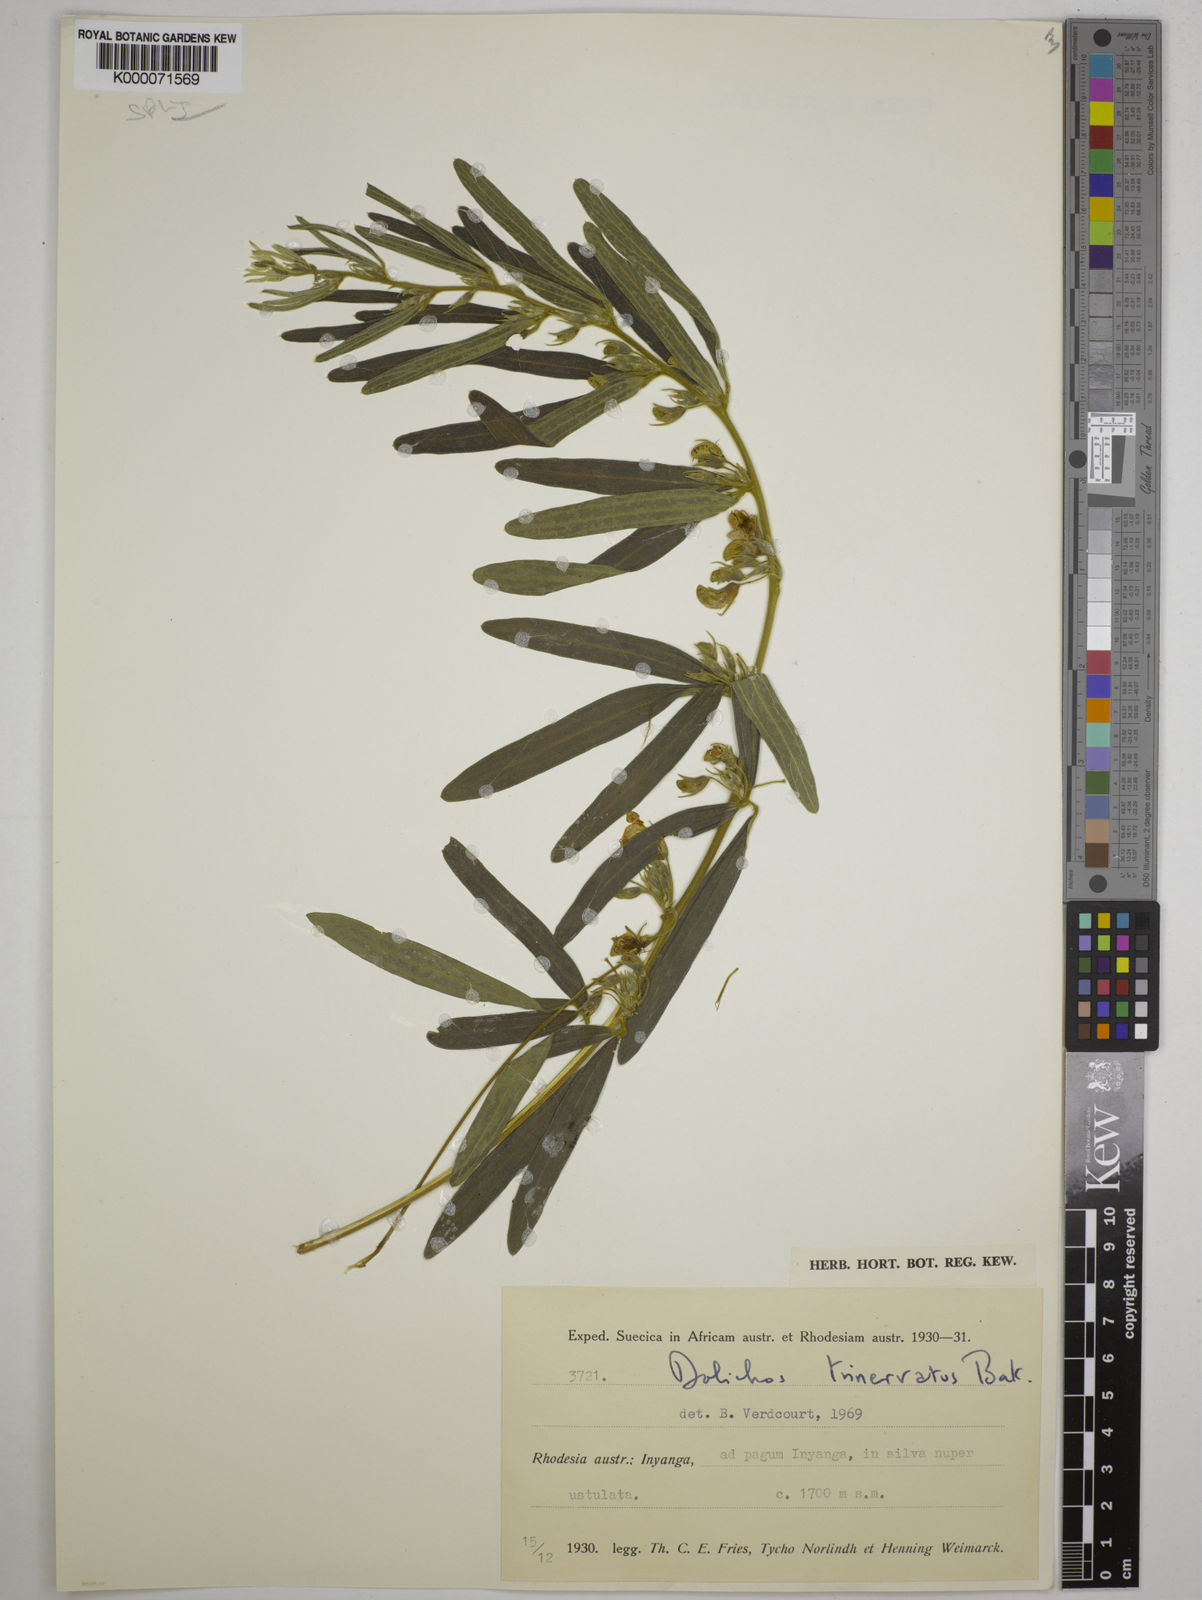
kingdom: Plantae
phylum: Tracheophyta
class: Magnoliopsida
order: Fabales
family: Fabaceae
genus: Dolichos
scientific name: Dolichos trinervatus
